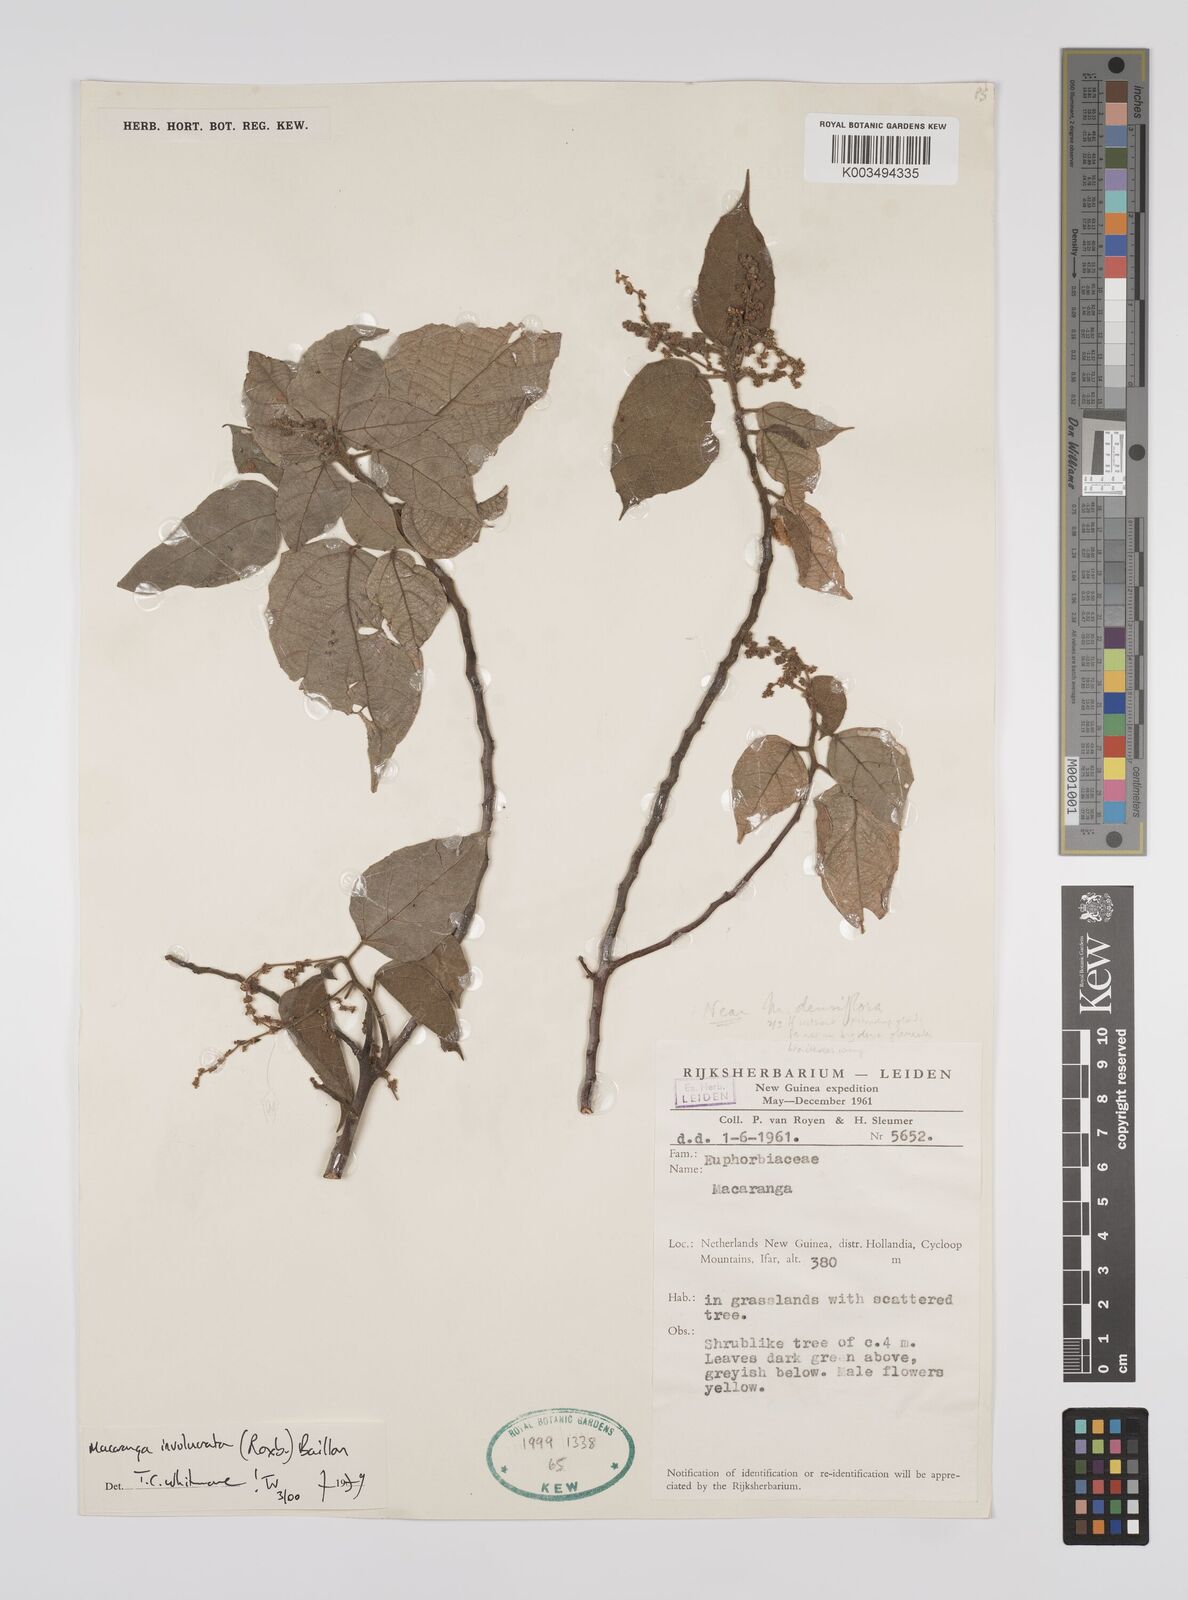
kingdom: Plantae
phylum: Tracheophyta
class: Magnoliopsida
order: Malpighiales
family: Euphorbiaceae
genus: Macaranga
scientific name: Macaranga involucrata
